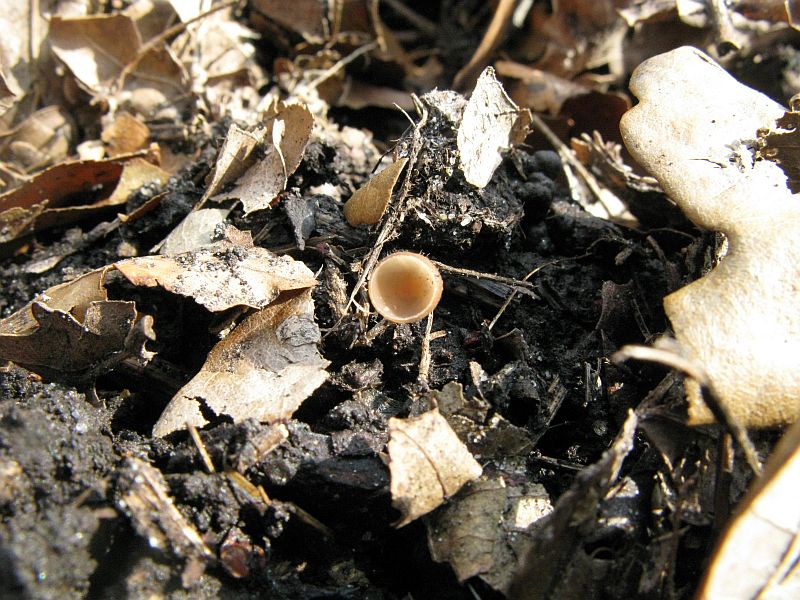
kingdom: Fungi
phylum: Ascomycota
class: Leotiomycetes
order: Helotiales
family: Sclerotiniaceae
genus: Ciboria
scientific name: Ciboria amentacea
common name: ellerakle-knoldskive
